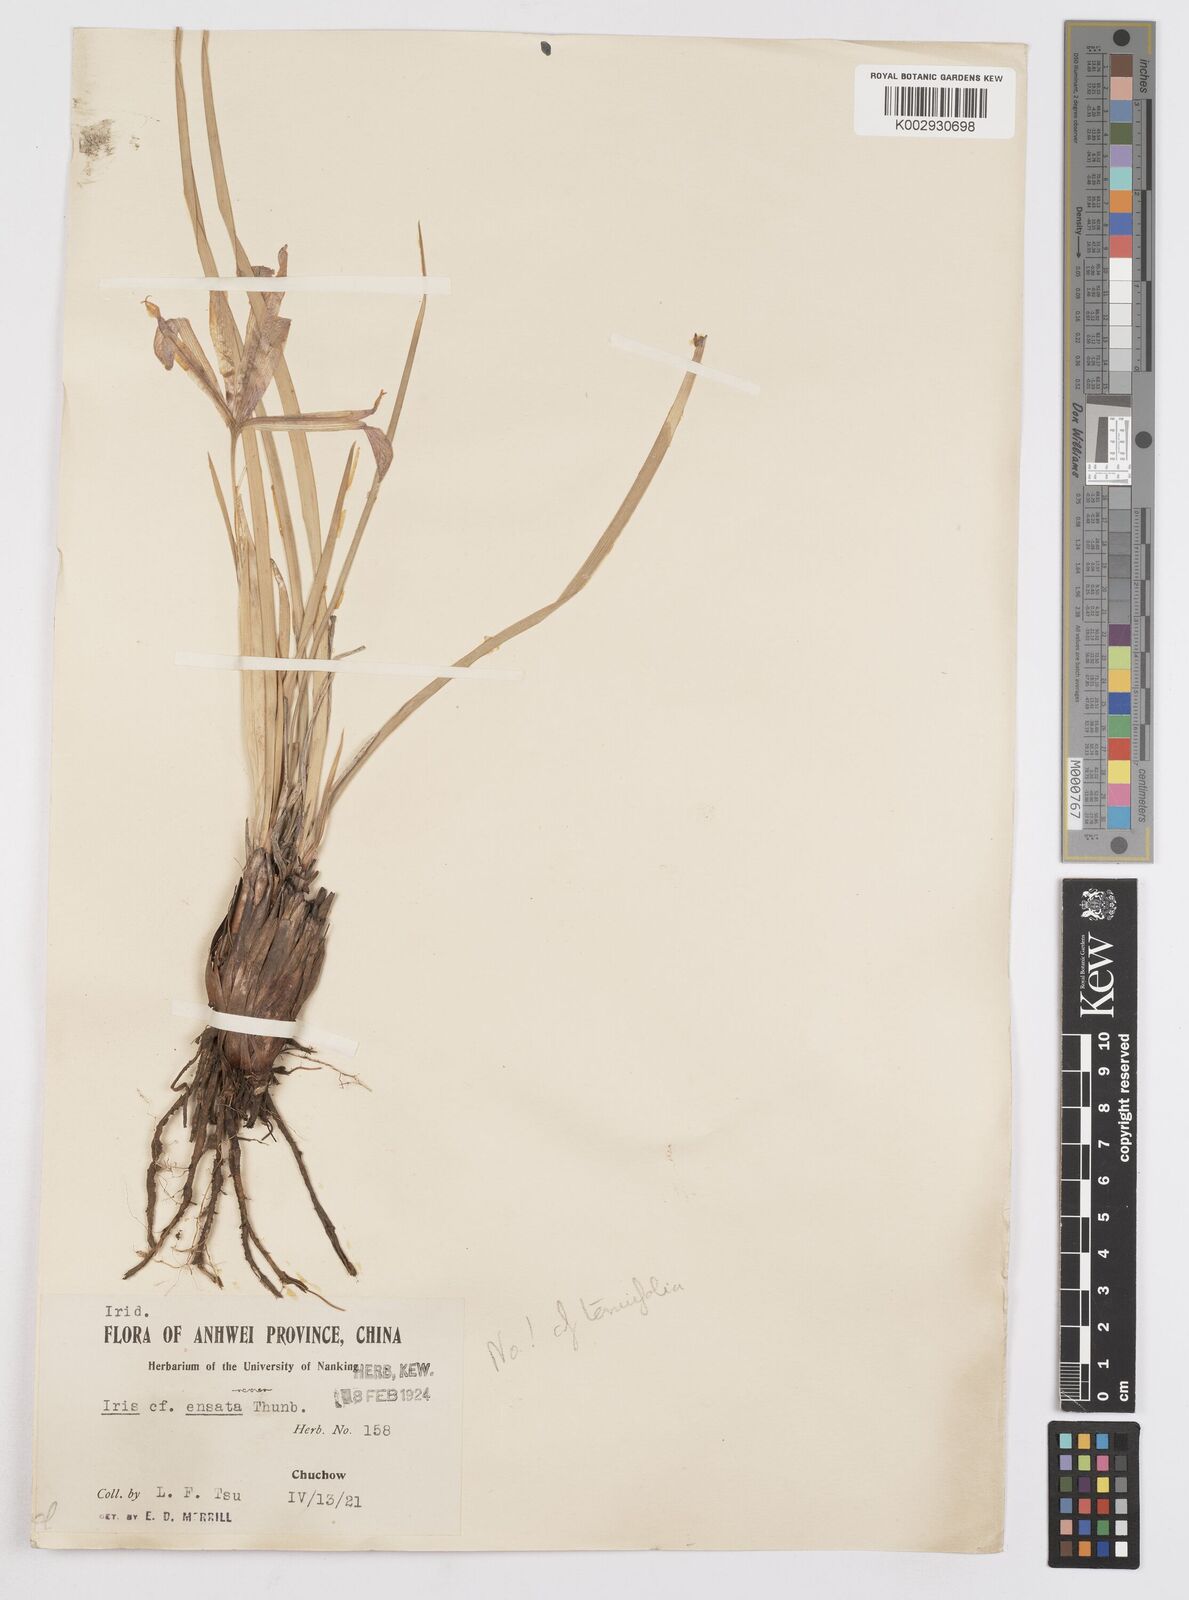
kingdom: Plantae
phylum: Tracheophyta
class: Liliopsida
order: Asparagales
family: Iridaceae
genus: Iris
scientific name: Iris ensata
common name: Beaked iris
